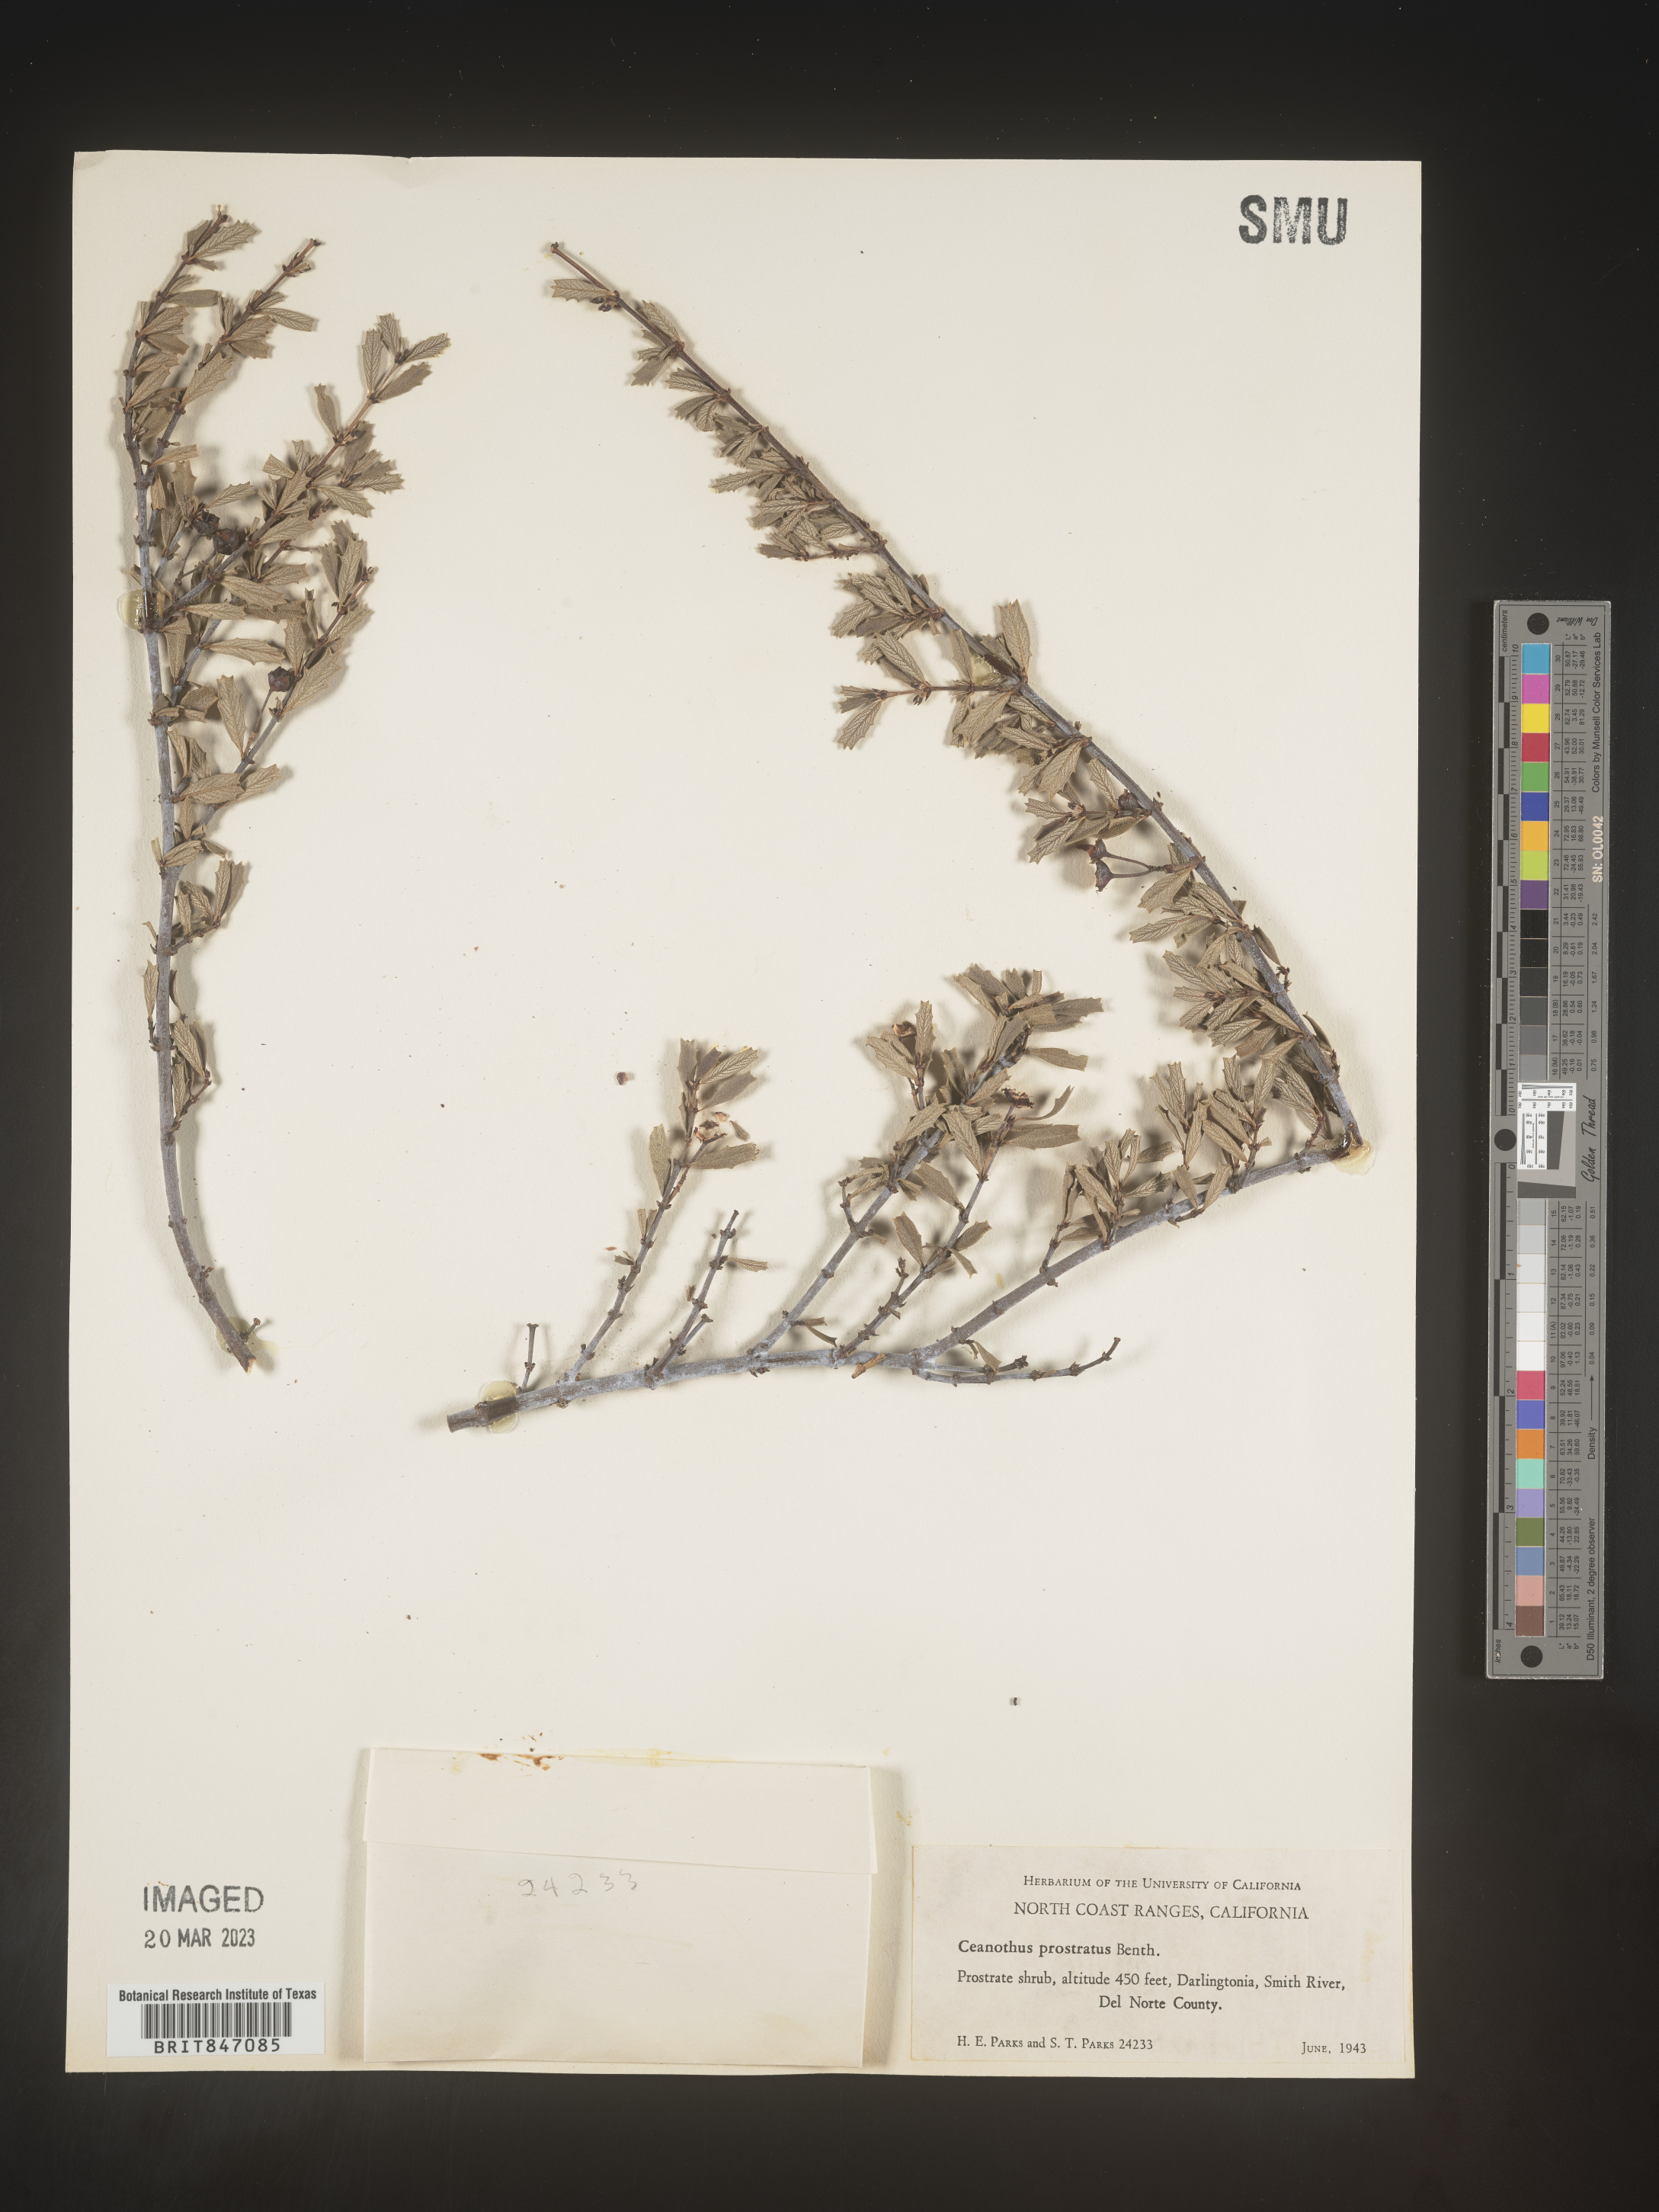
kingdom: Plantae
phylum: Tracheophyta
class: Magnoliopsida
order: Rosales
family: Rhamnaceae
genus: Ceanothus
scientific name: Ceanothus
